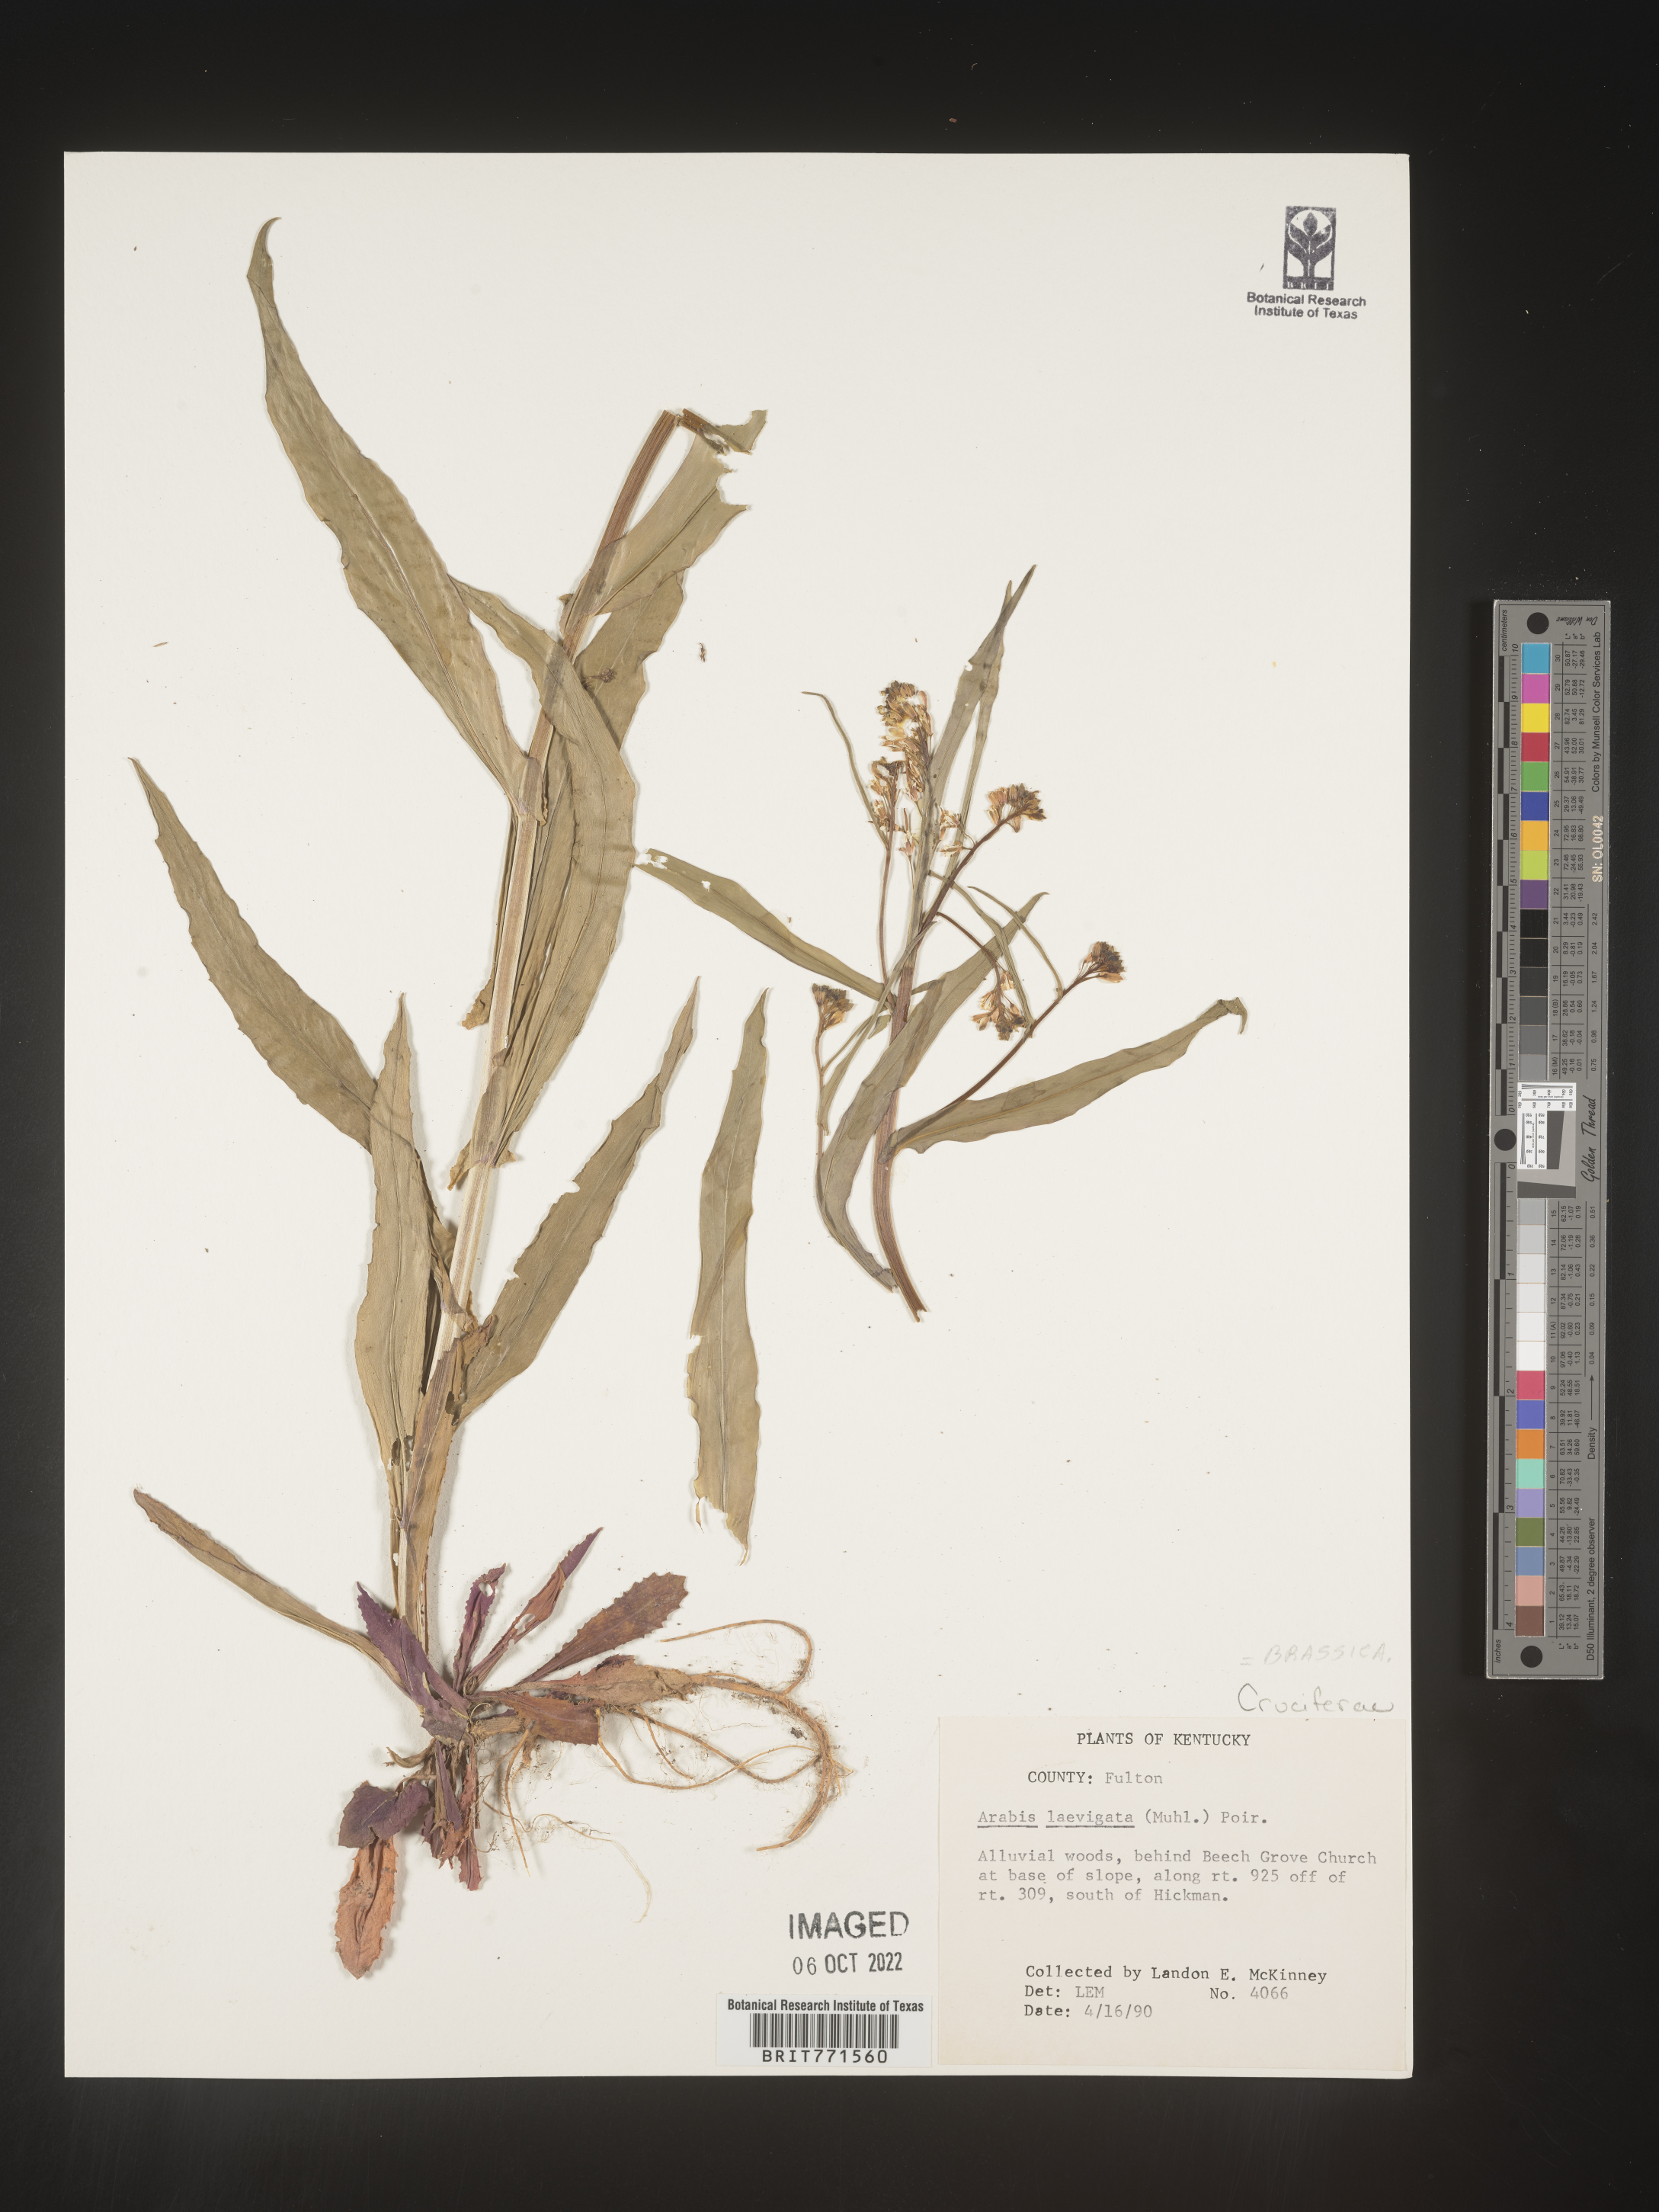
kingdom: Plantae
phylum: Tracheophyta
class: Magnoliopsida
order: Brassicales
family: Brassicaceae
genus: Arabis
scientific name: Arabis laevigata
